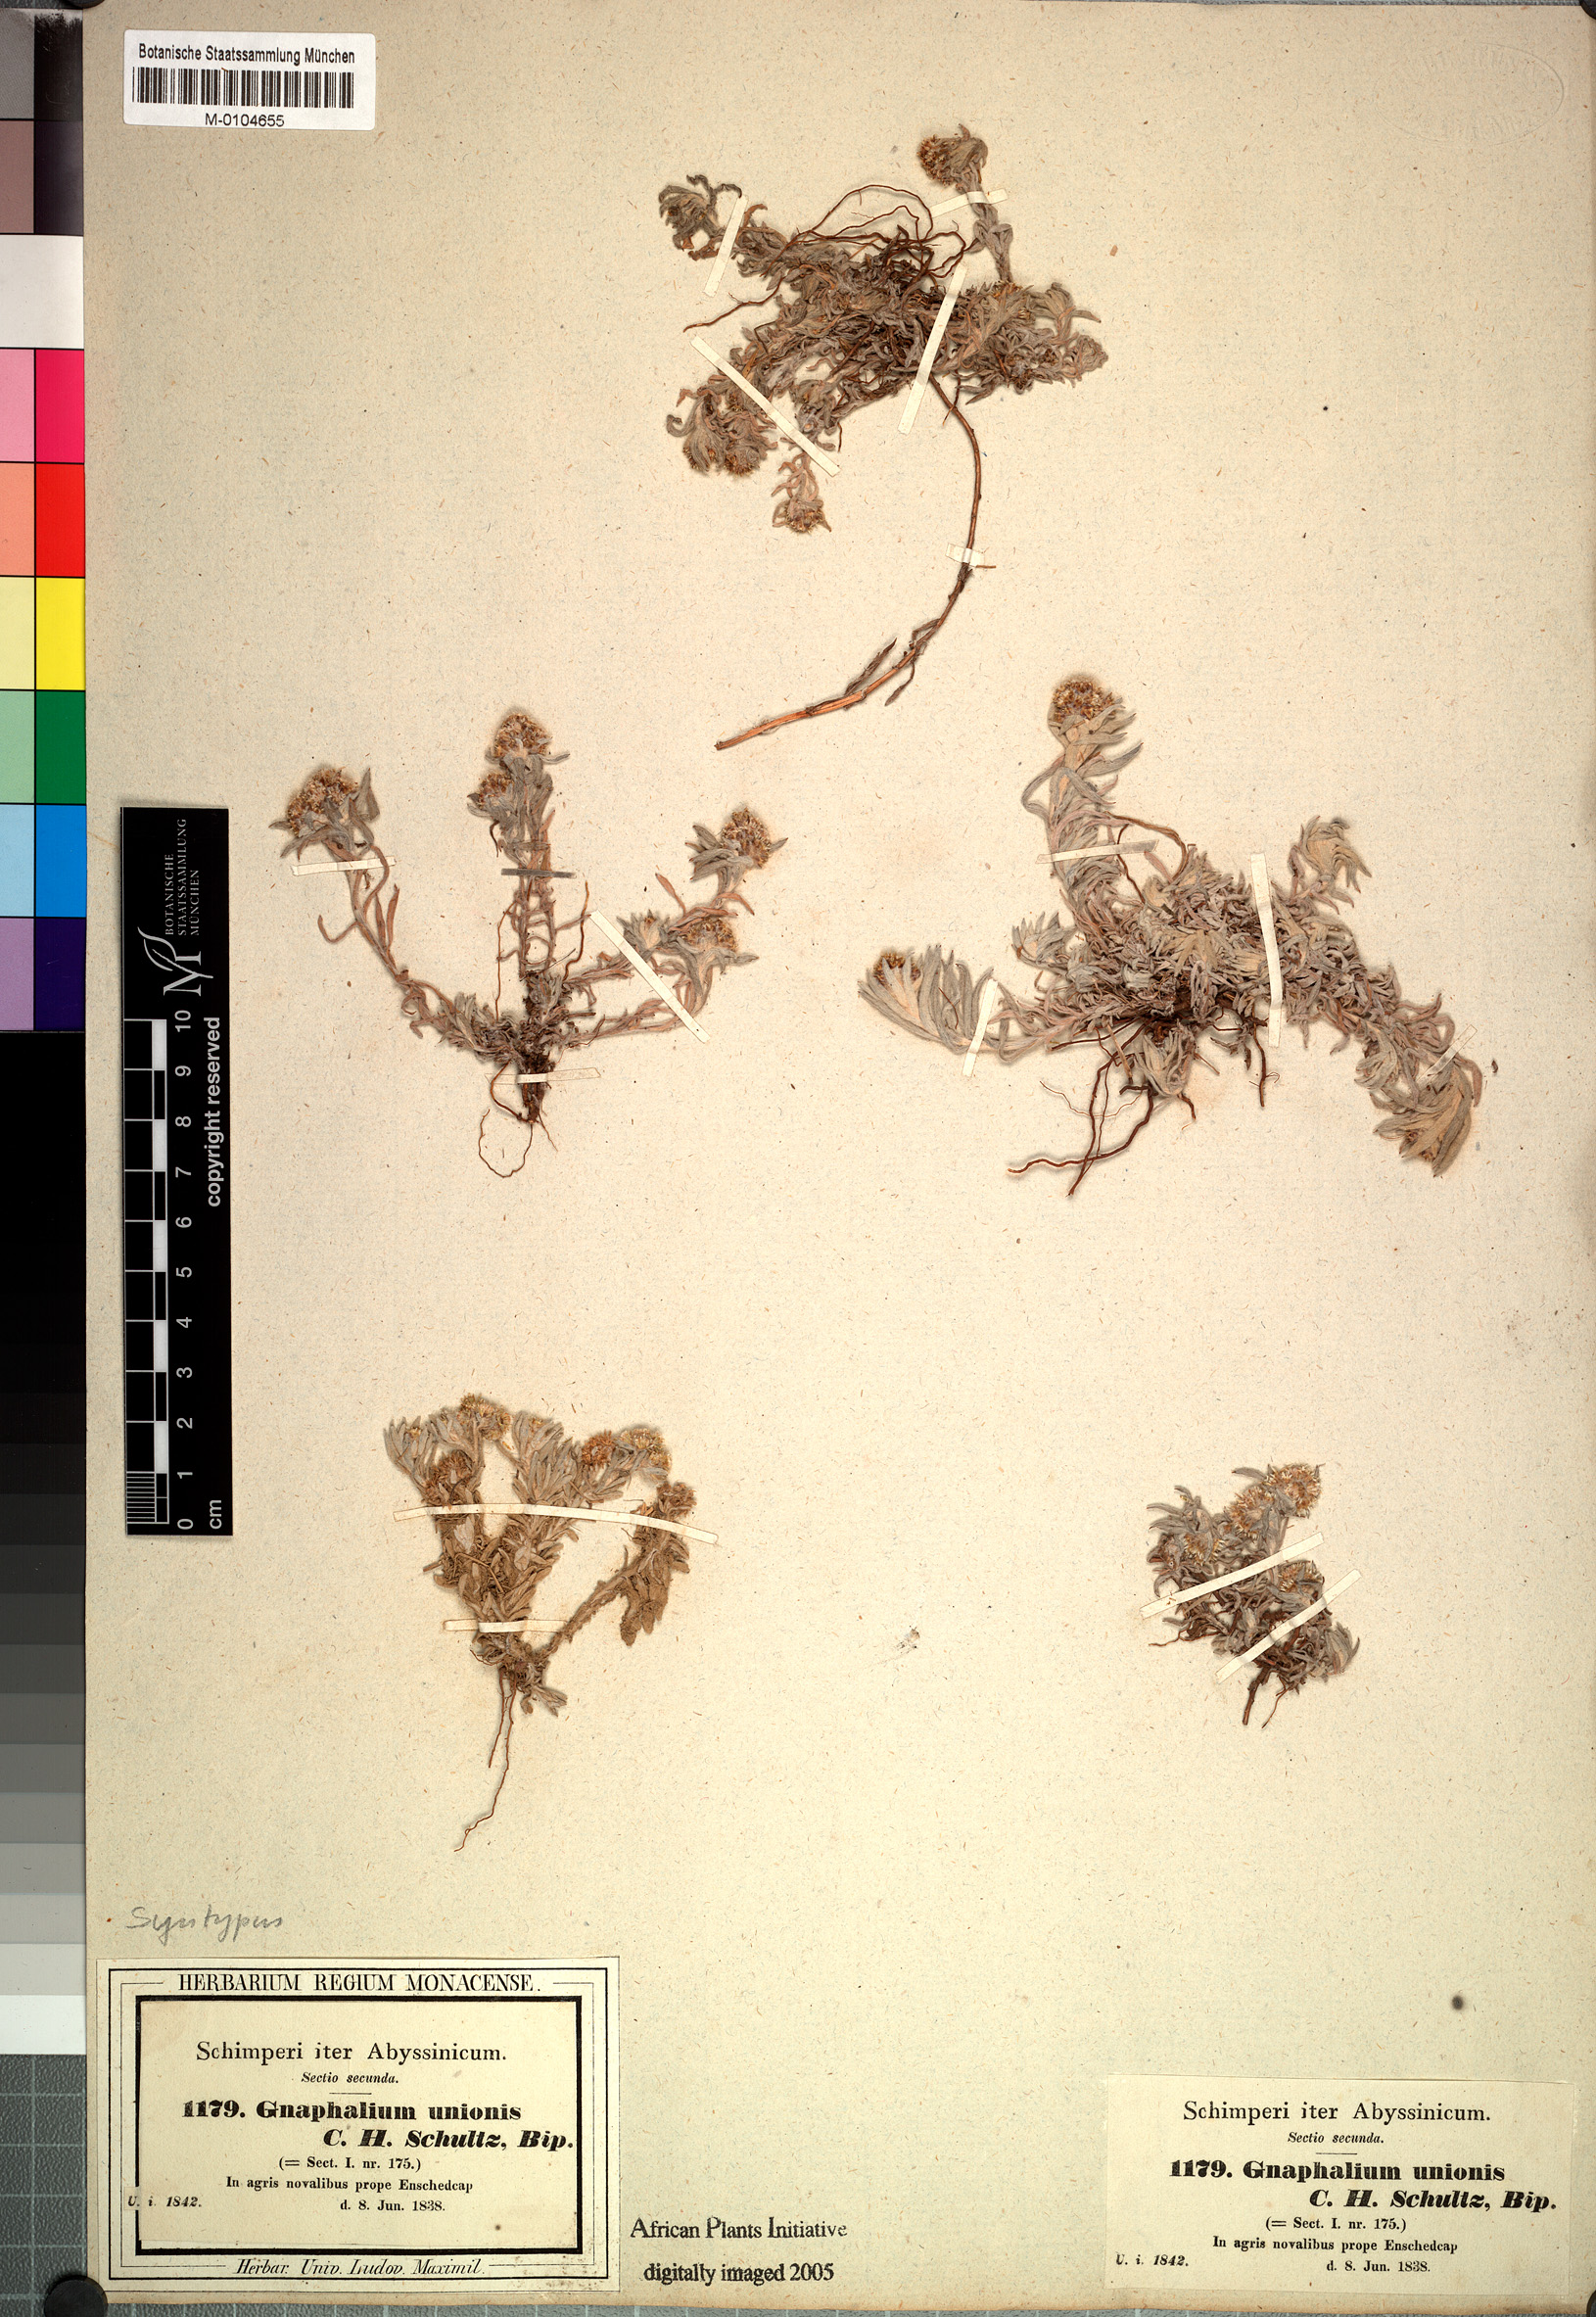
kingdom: Plantae
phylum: Tracheophyta
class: Magnoliopsida
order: Asterales
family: Asteraceae
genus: Gnaphalium
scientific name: Gnaphalium unionis
